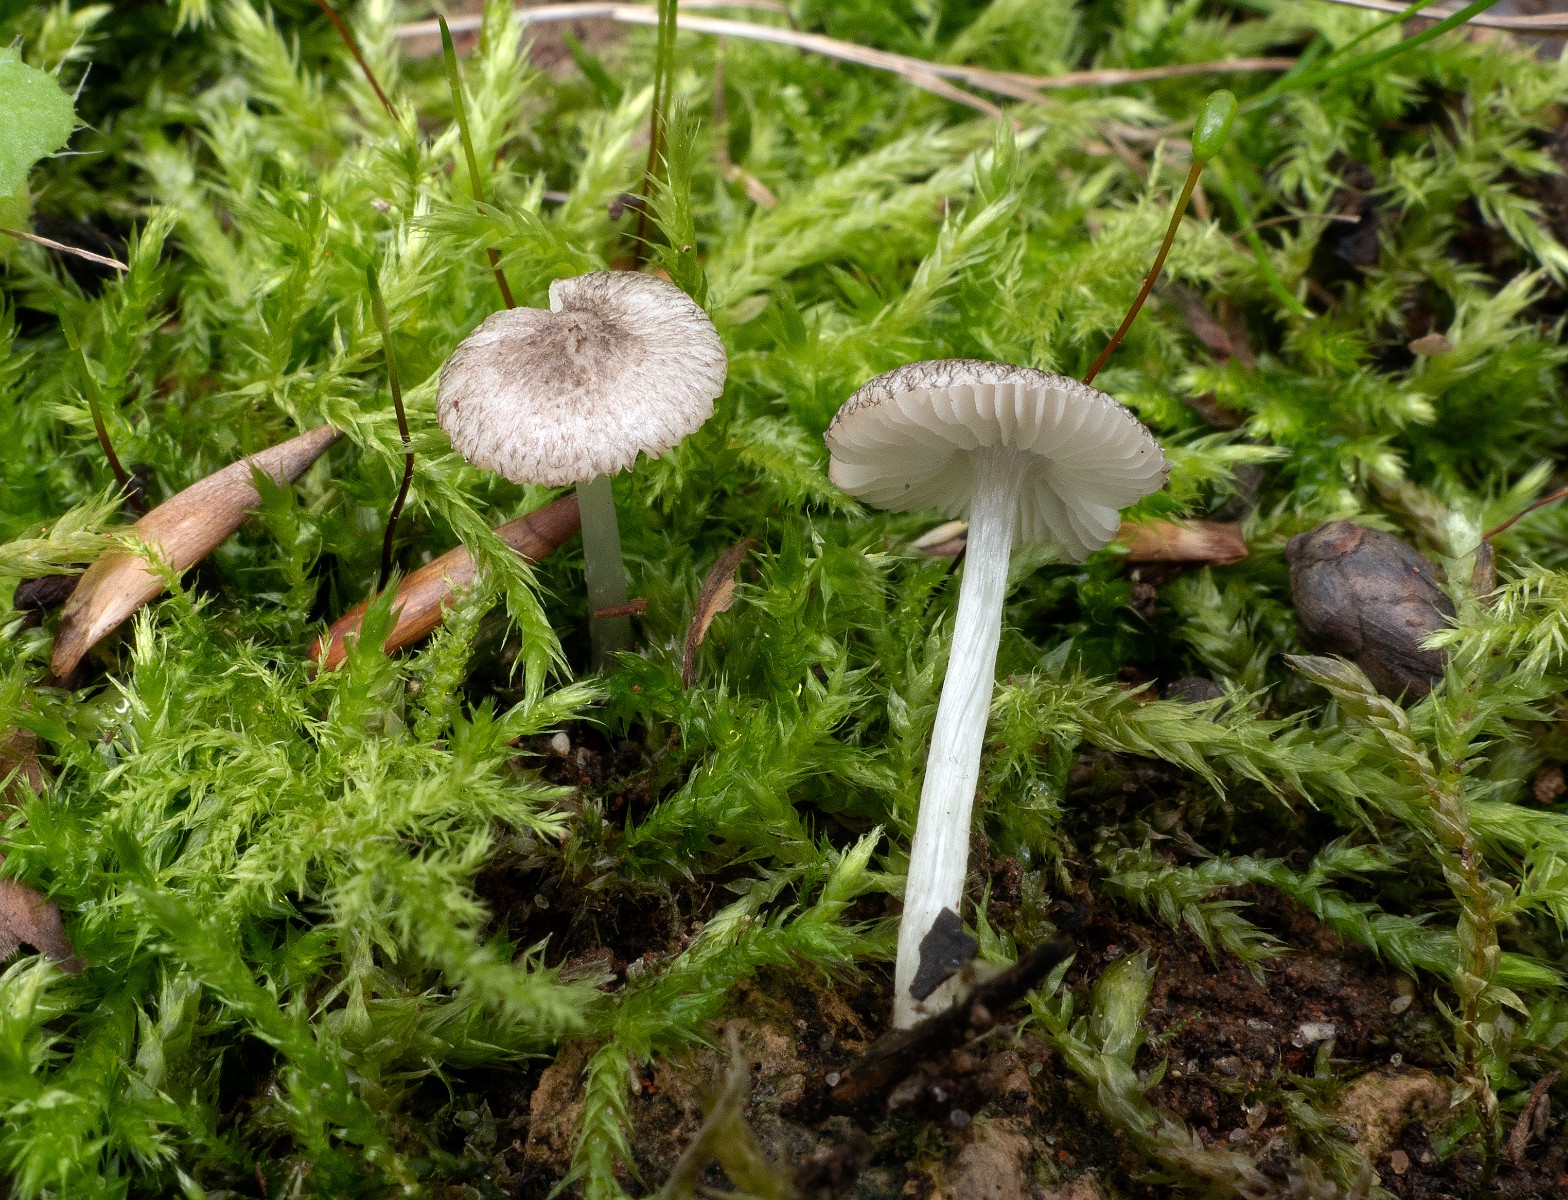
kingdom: Fungi
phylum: Basidiomycota
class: Agaricomycetes
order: Agaricales
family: Pluteaceae
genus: Pluteus
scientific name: Pluteus
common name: stivhåret skærmhat
